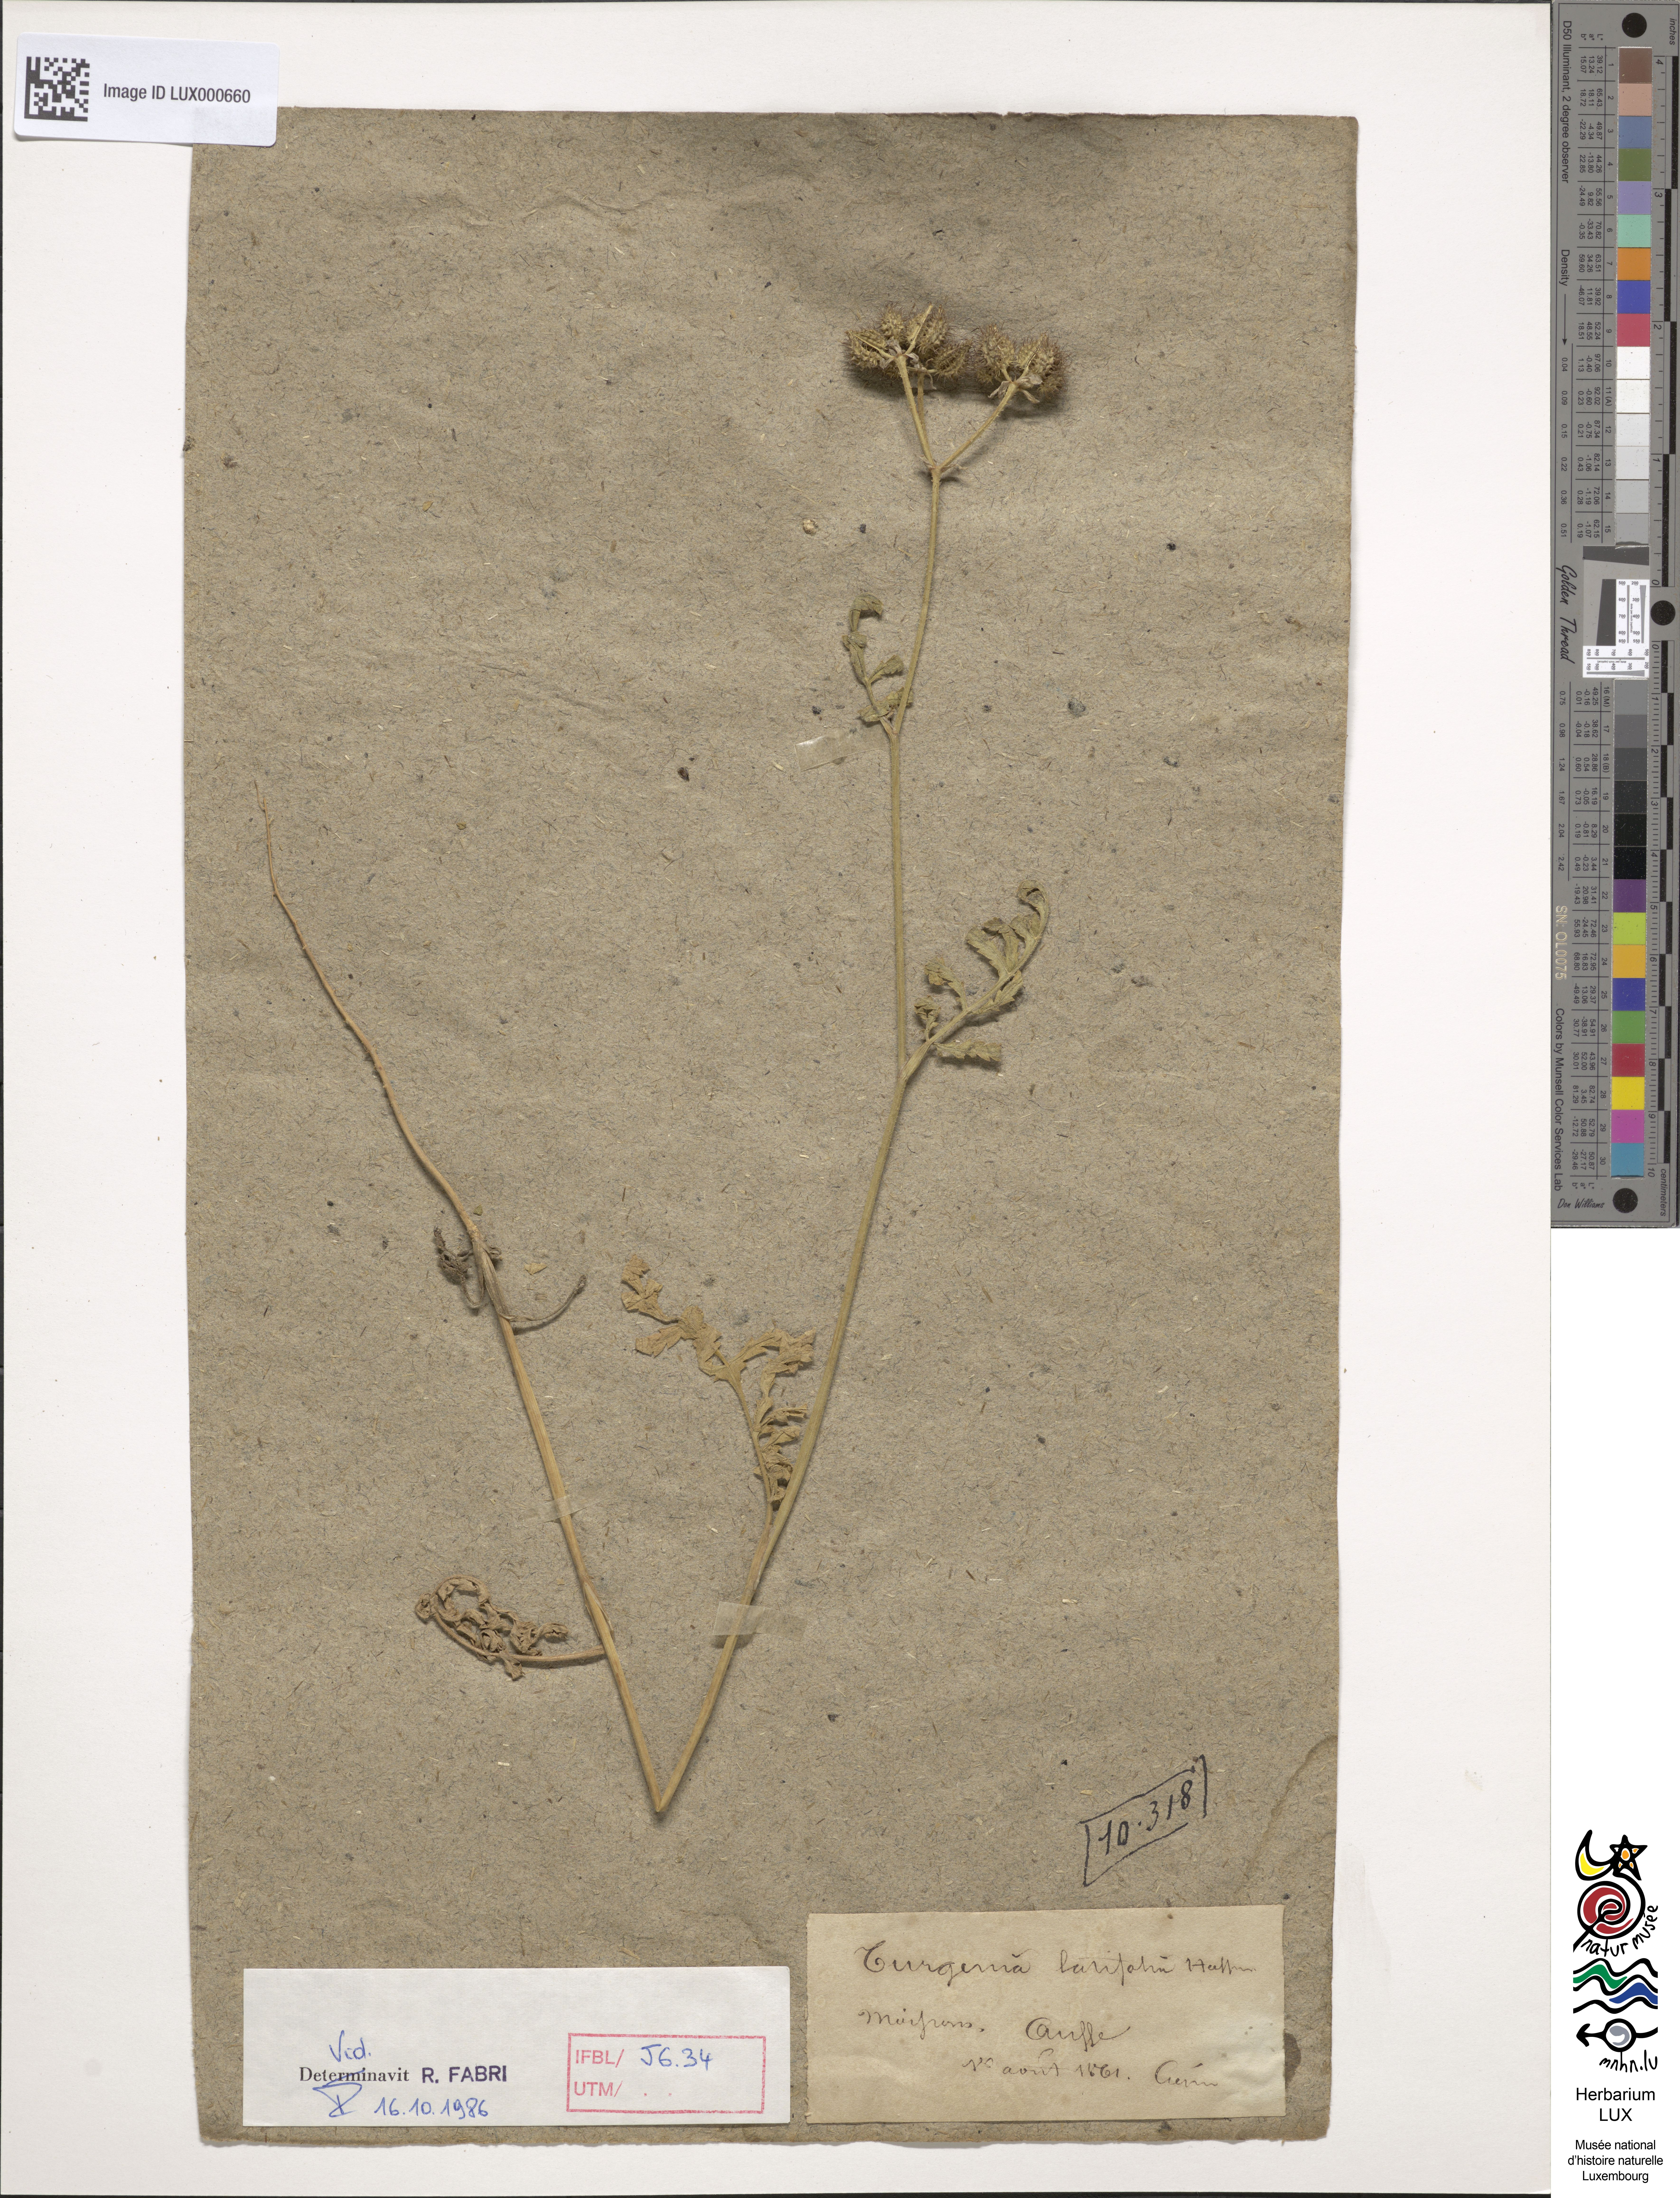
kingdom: Plantae
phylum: Tracheophyta
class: Magnoliopsida
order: Apiales
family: Apiaceae
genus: Turgenia
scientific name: Turgenia latifolia
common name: Greater bur-parsley
